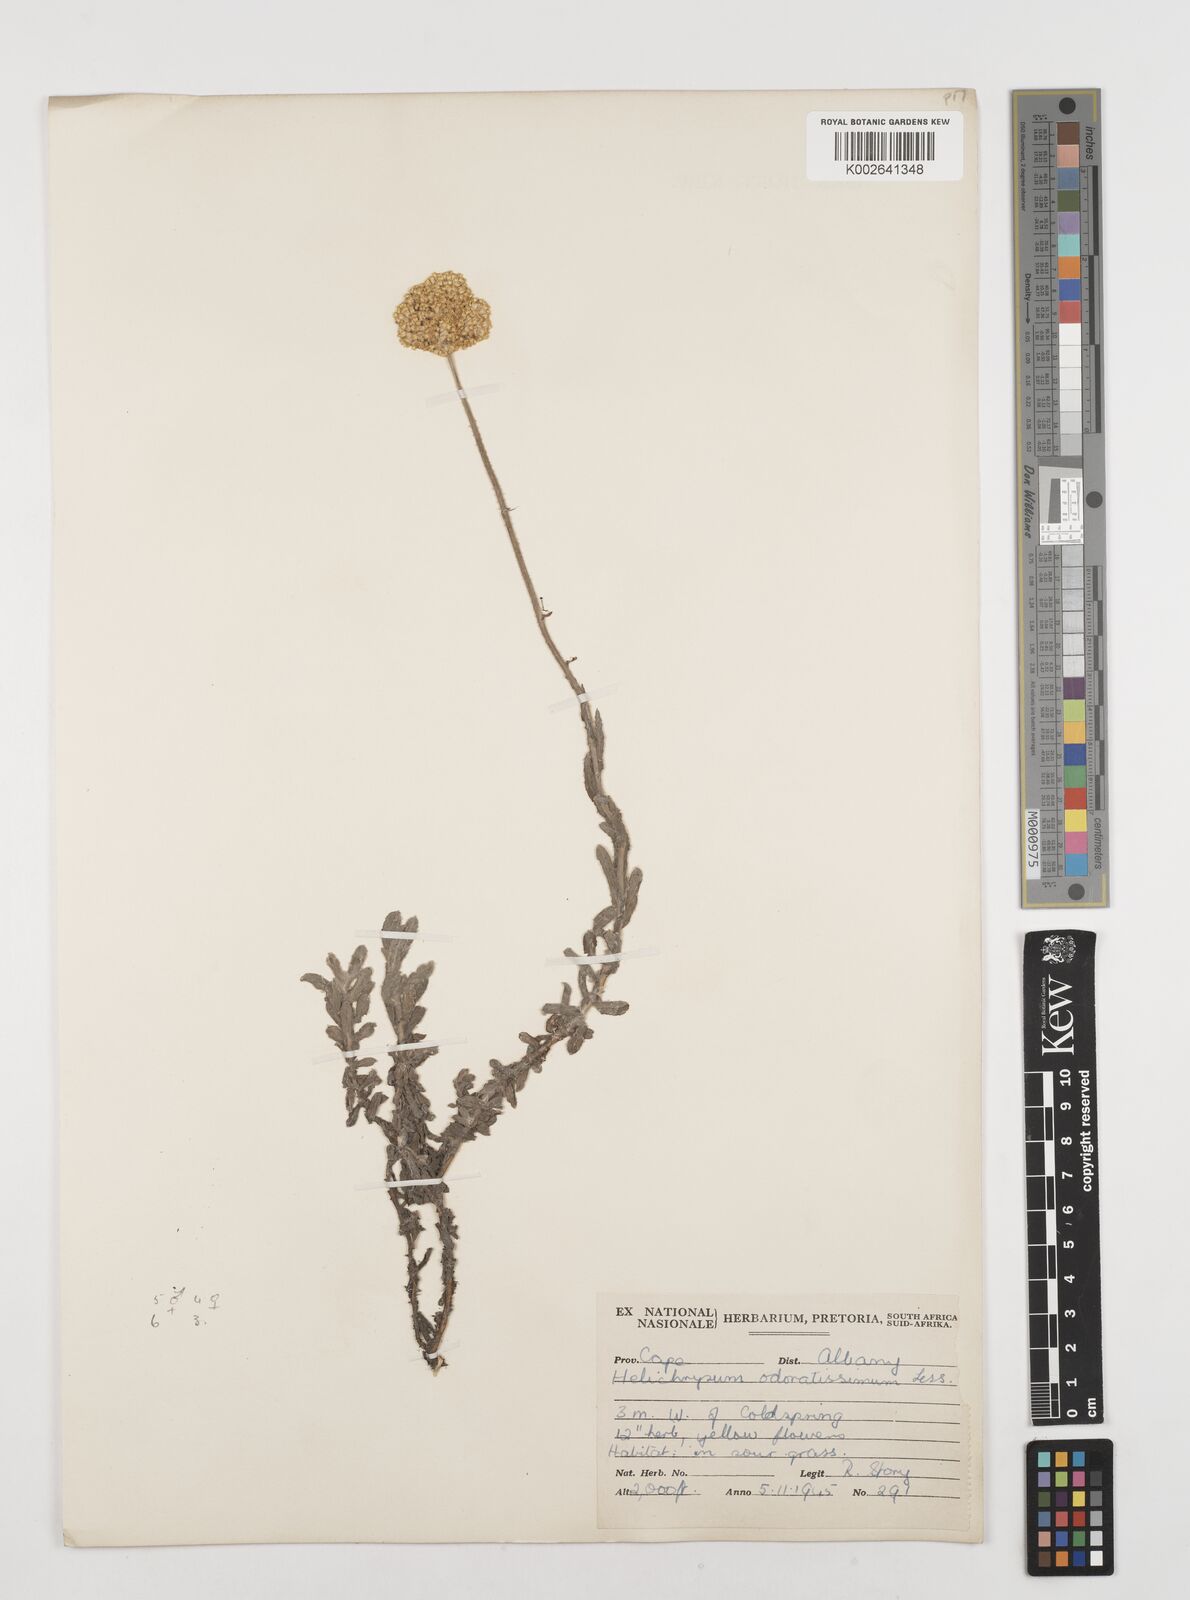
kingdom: Plantae
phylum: Tracheophyta
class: Magnoliopsida
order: Asterales
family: Asteraceae
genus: Helichrysum
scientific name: Helichrysum odoratissimum
